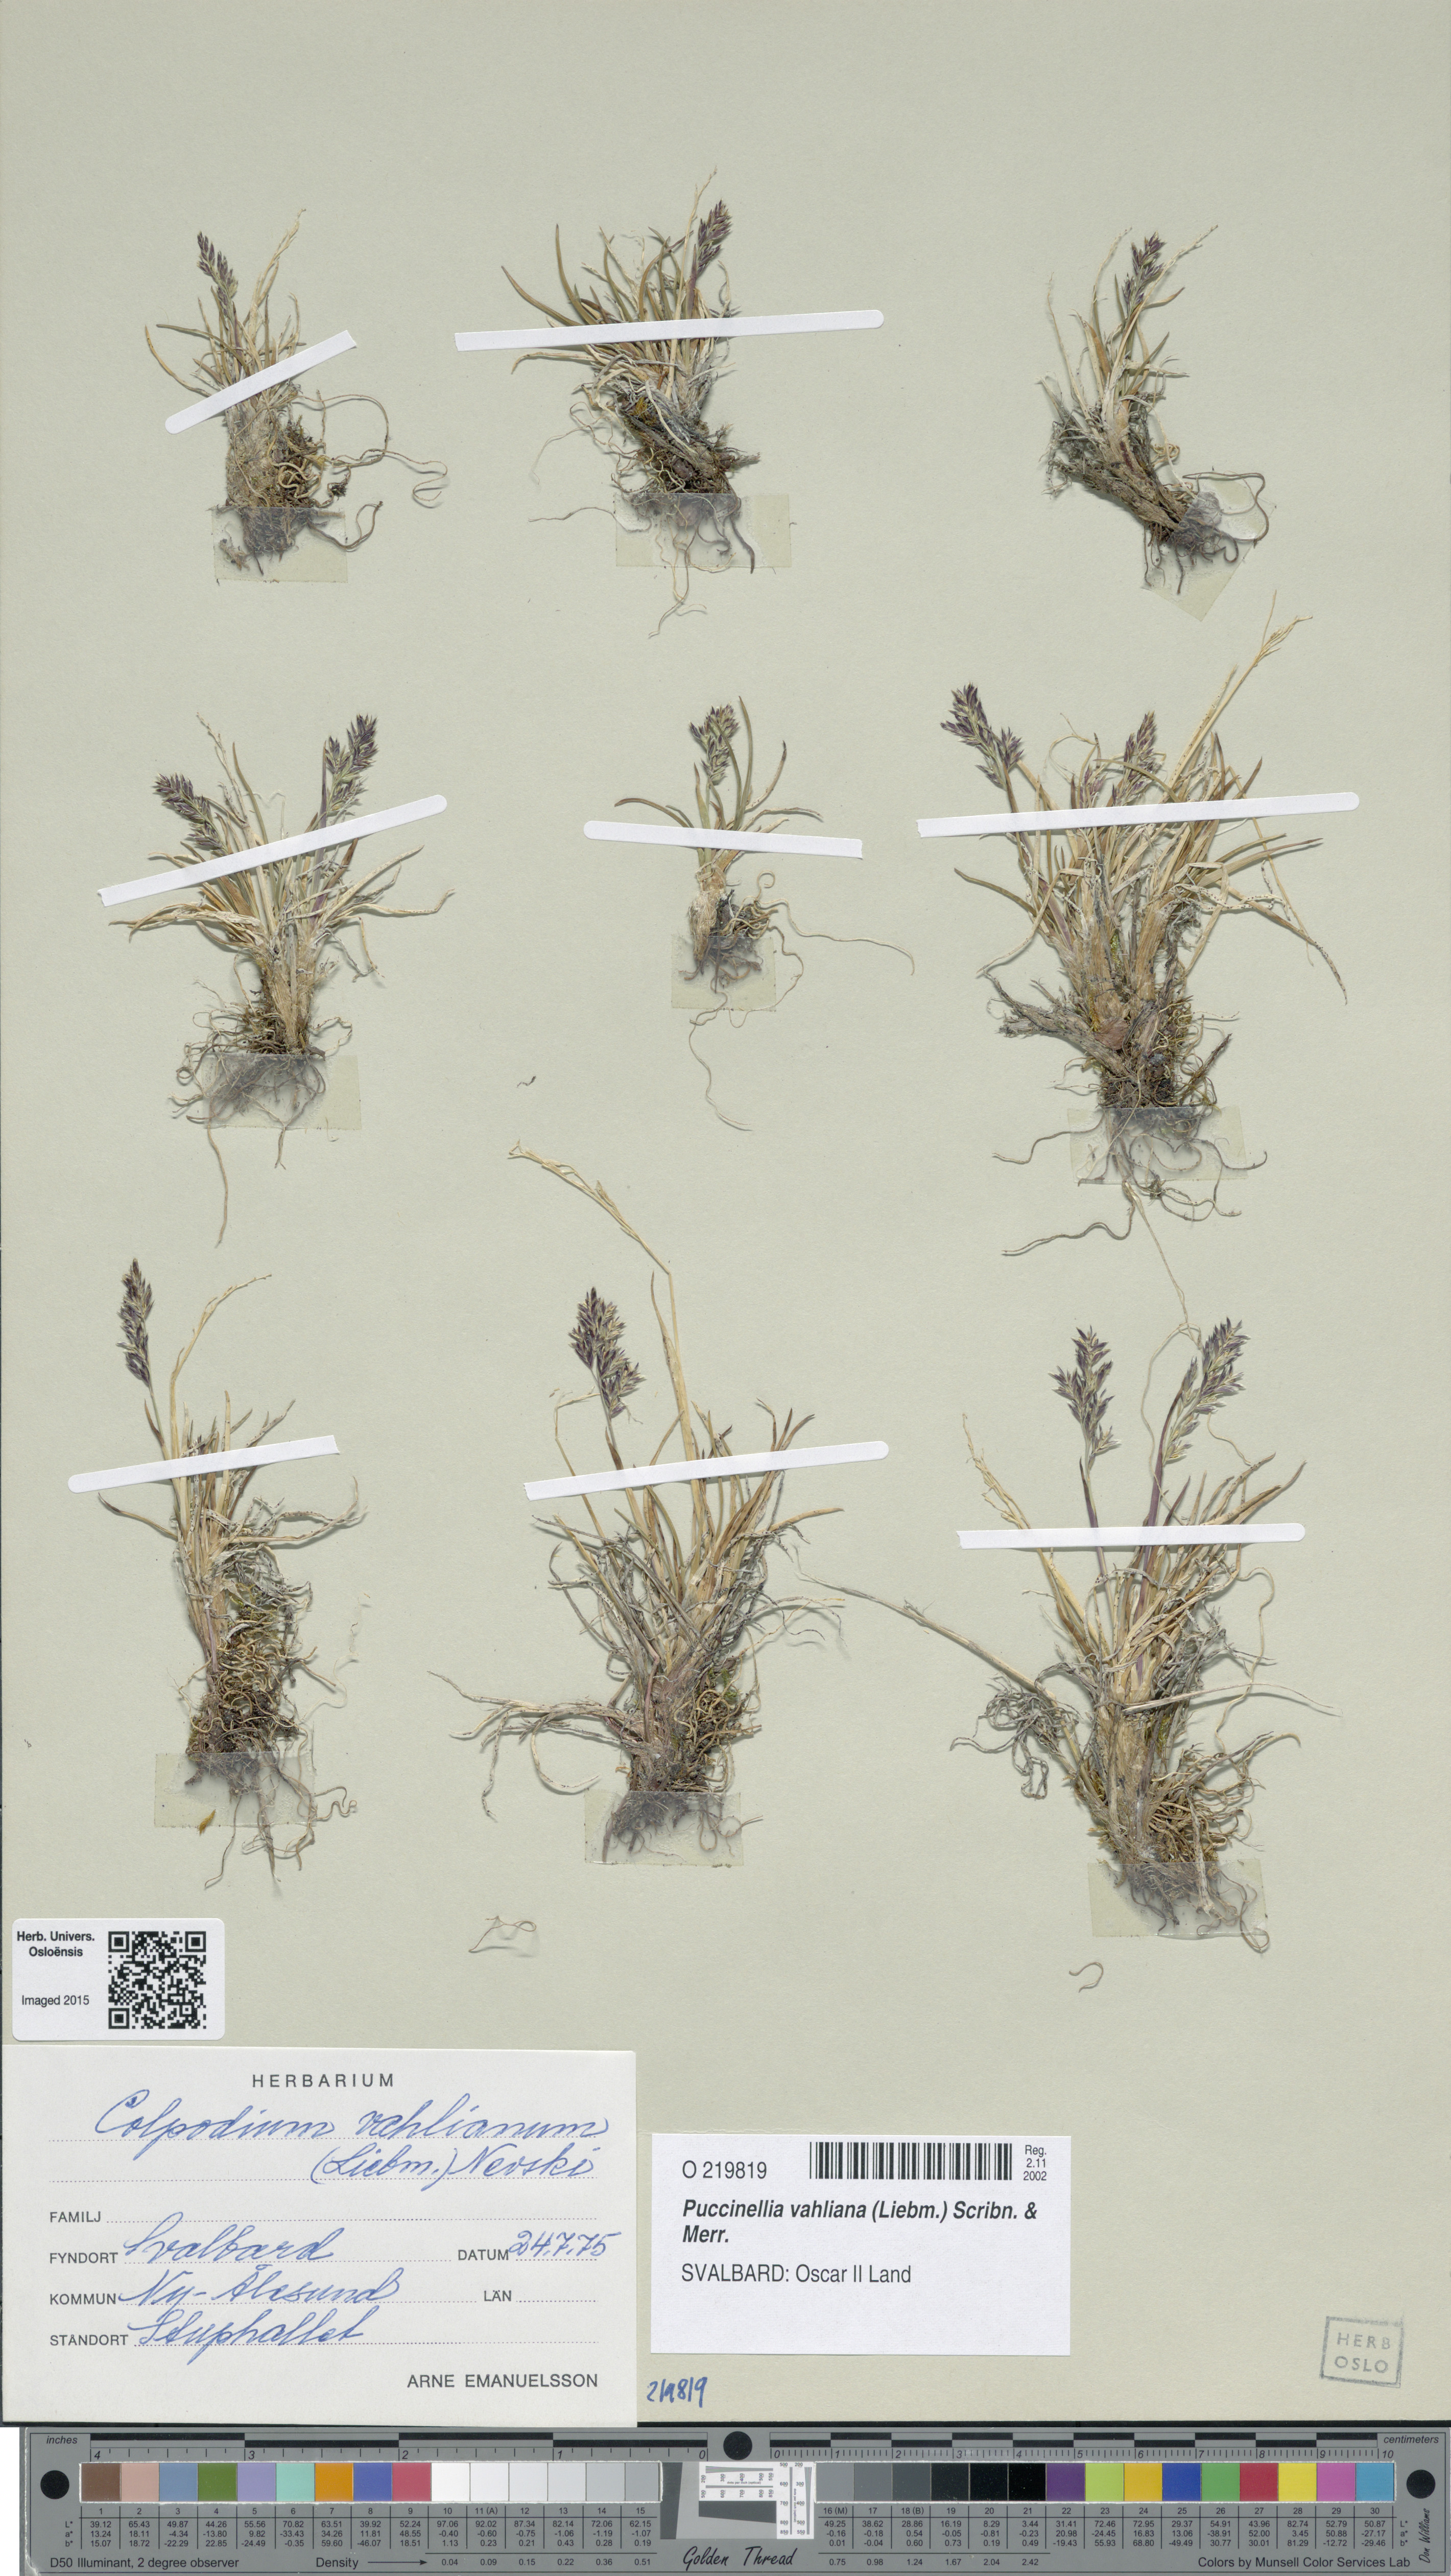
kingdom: Plantae
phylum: Tracheophyta
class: Liliopsida
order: Poales
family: Poaceae
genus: Puccinellia
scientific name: Puccinellia vahliana
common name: Vahl's alkaligrass
